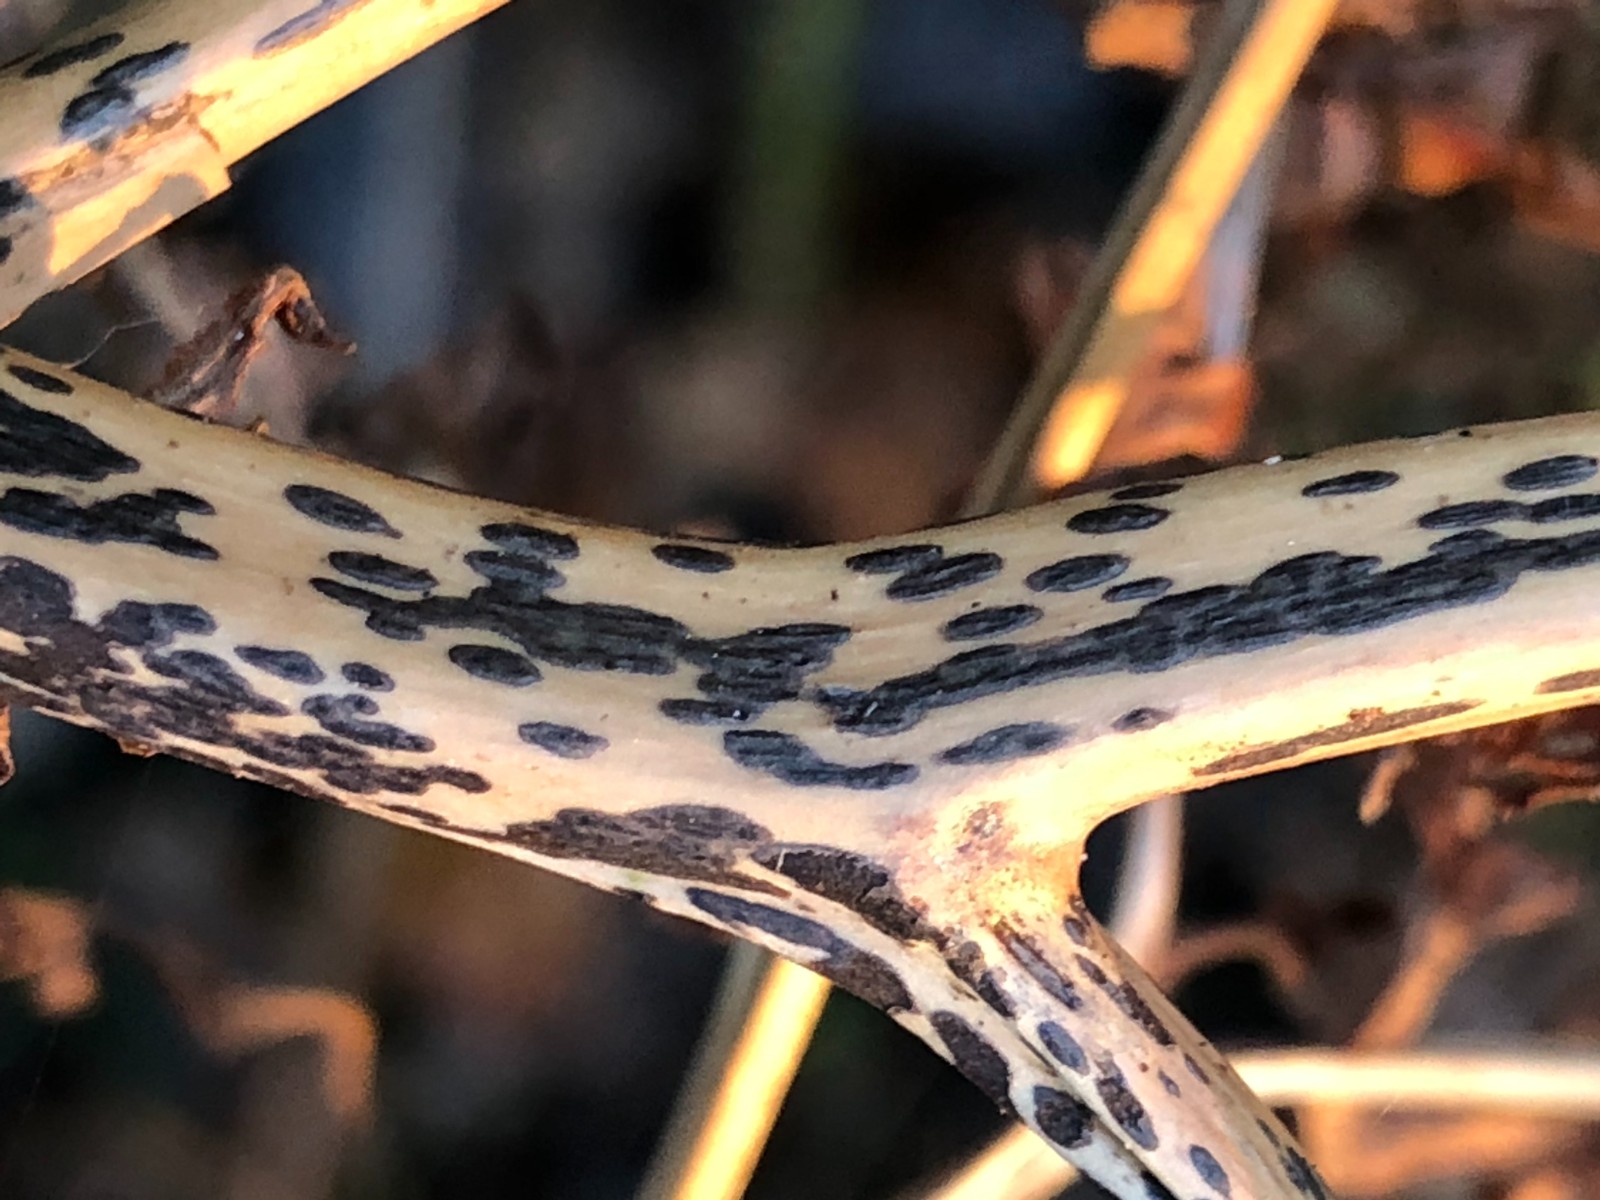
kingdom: Fungi
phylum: Ascomycota
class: Dothideomycetes
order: Pleosporales
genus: Rhopographus
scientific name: Rhopographus filicinus
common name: Bracken map
